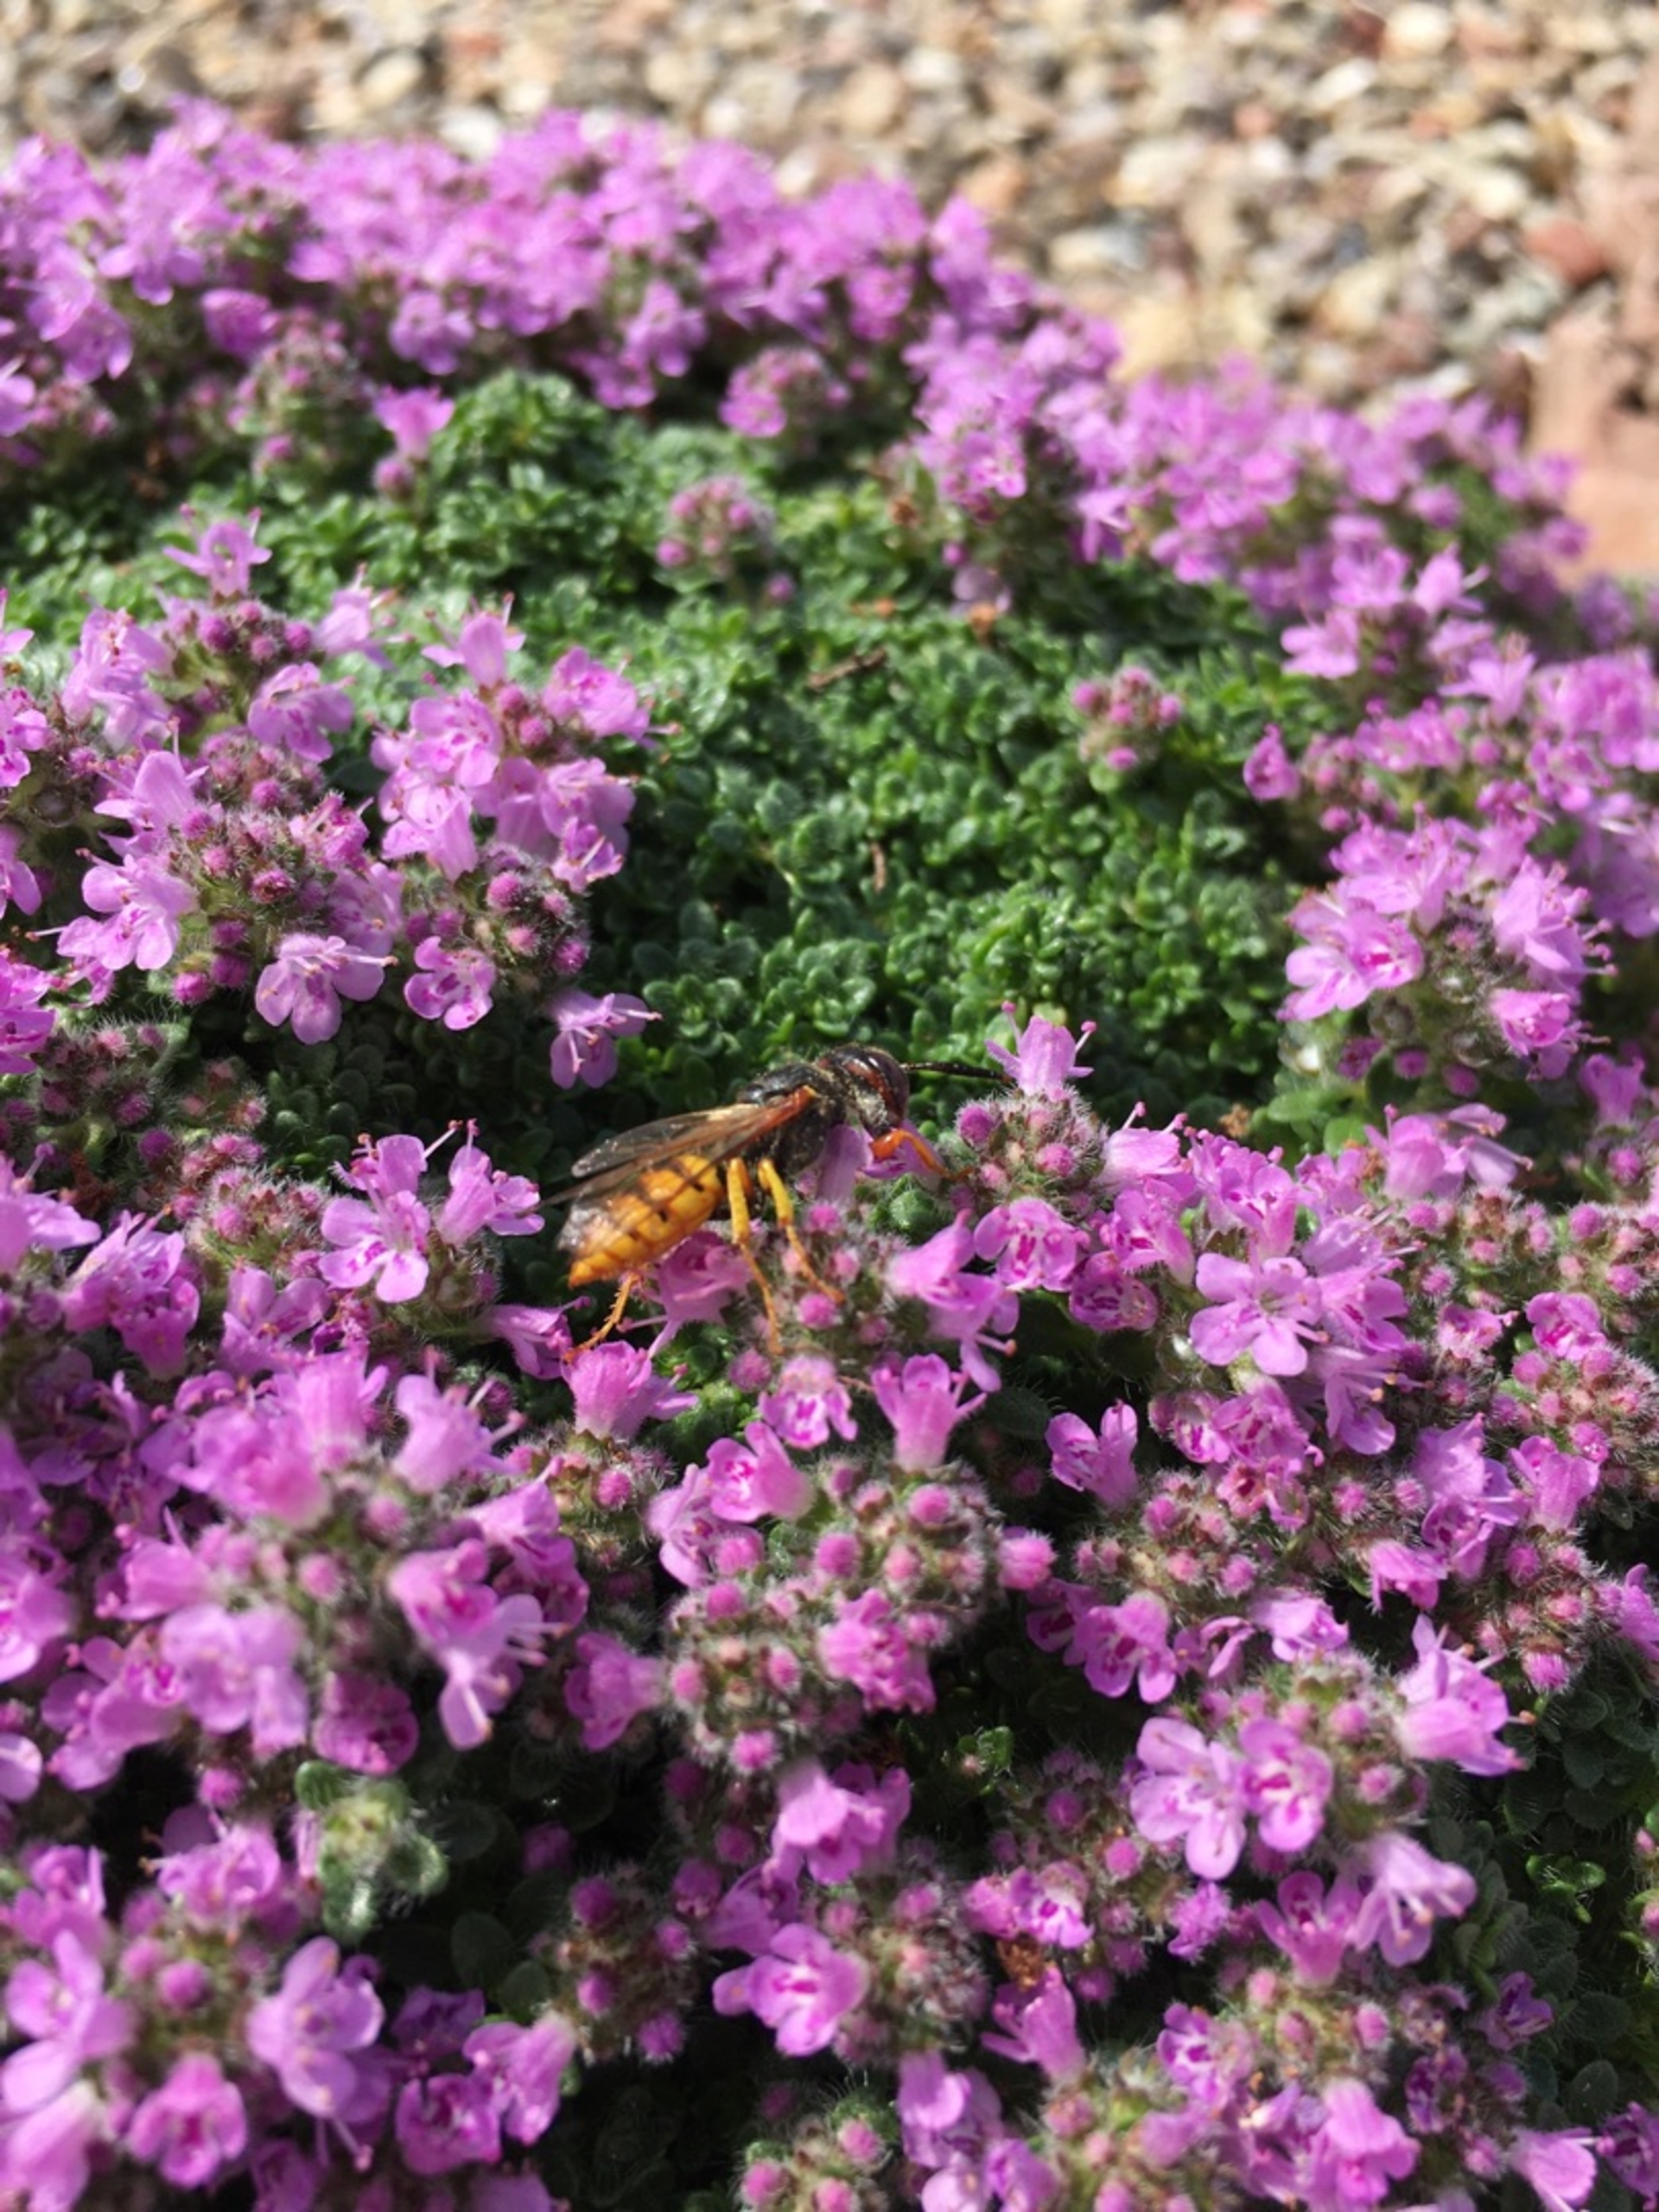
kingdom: Animalia
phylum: Arthropoda
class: Insecta
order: Hymenoptera
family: Crabronidae
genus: Philanthus
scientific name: Philanthus triangulum
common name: Biulv
